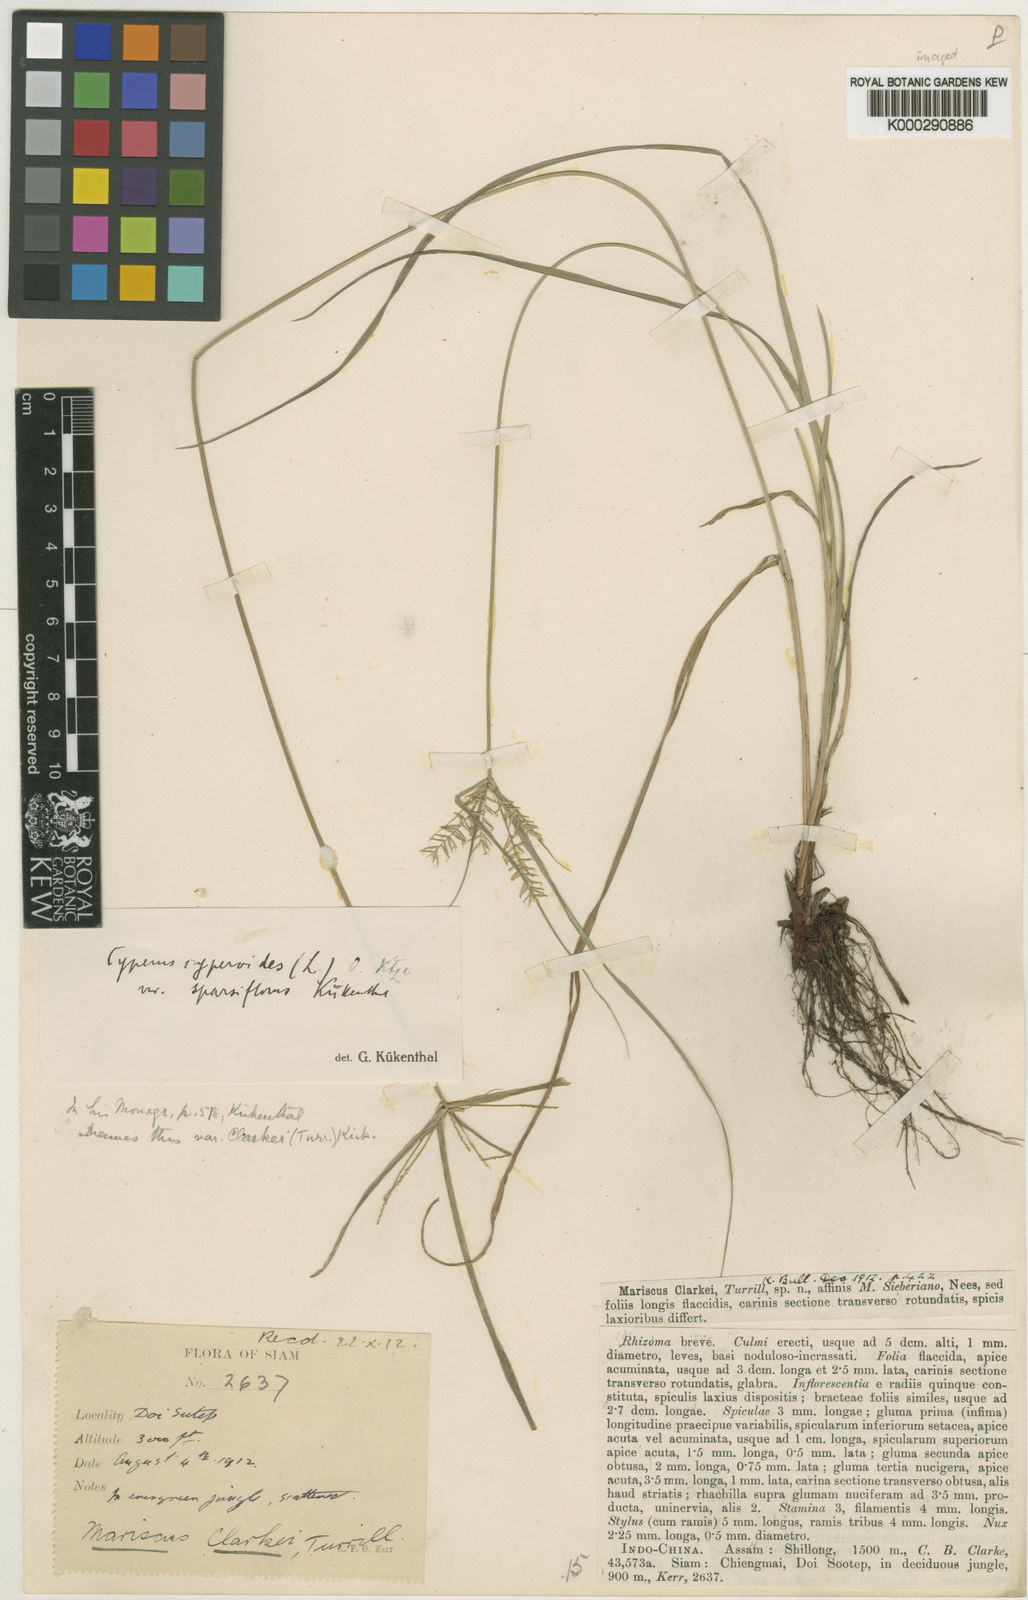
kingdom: Plantae
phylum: Tracheophyta
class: Liliopsida
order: Poales
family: Cyperaceae
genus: Cyperus
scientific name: Cyperus cyperoides
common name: Pacific island flat sedge
